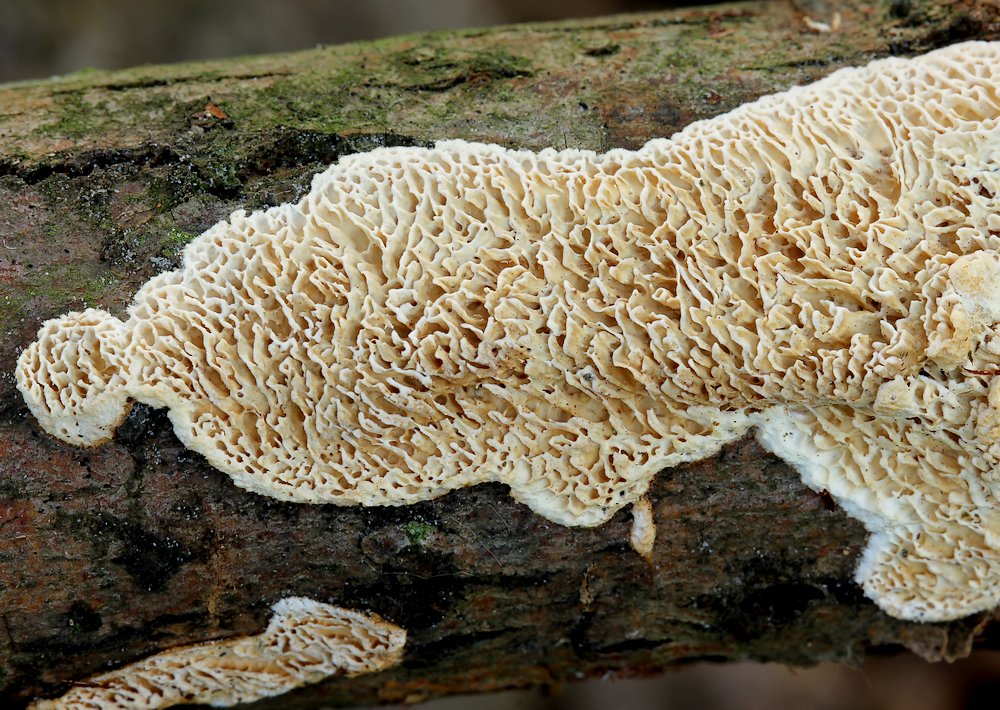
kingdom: Fungi
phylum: Basidiomycota
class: Agaricomycetes
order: Polyporales
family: Fomitopsidaceae
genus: Fomitopsis
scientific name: Fomitopsis
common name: pile-skiveporesvamp
